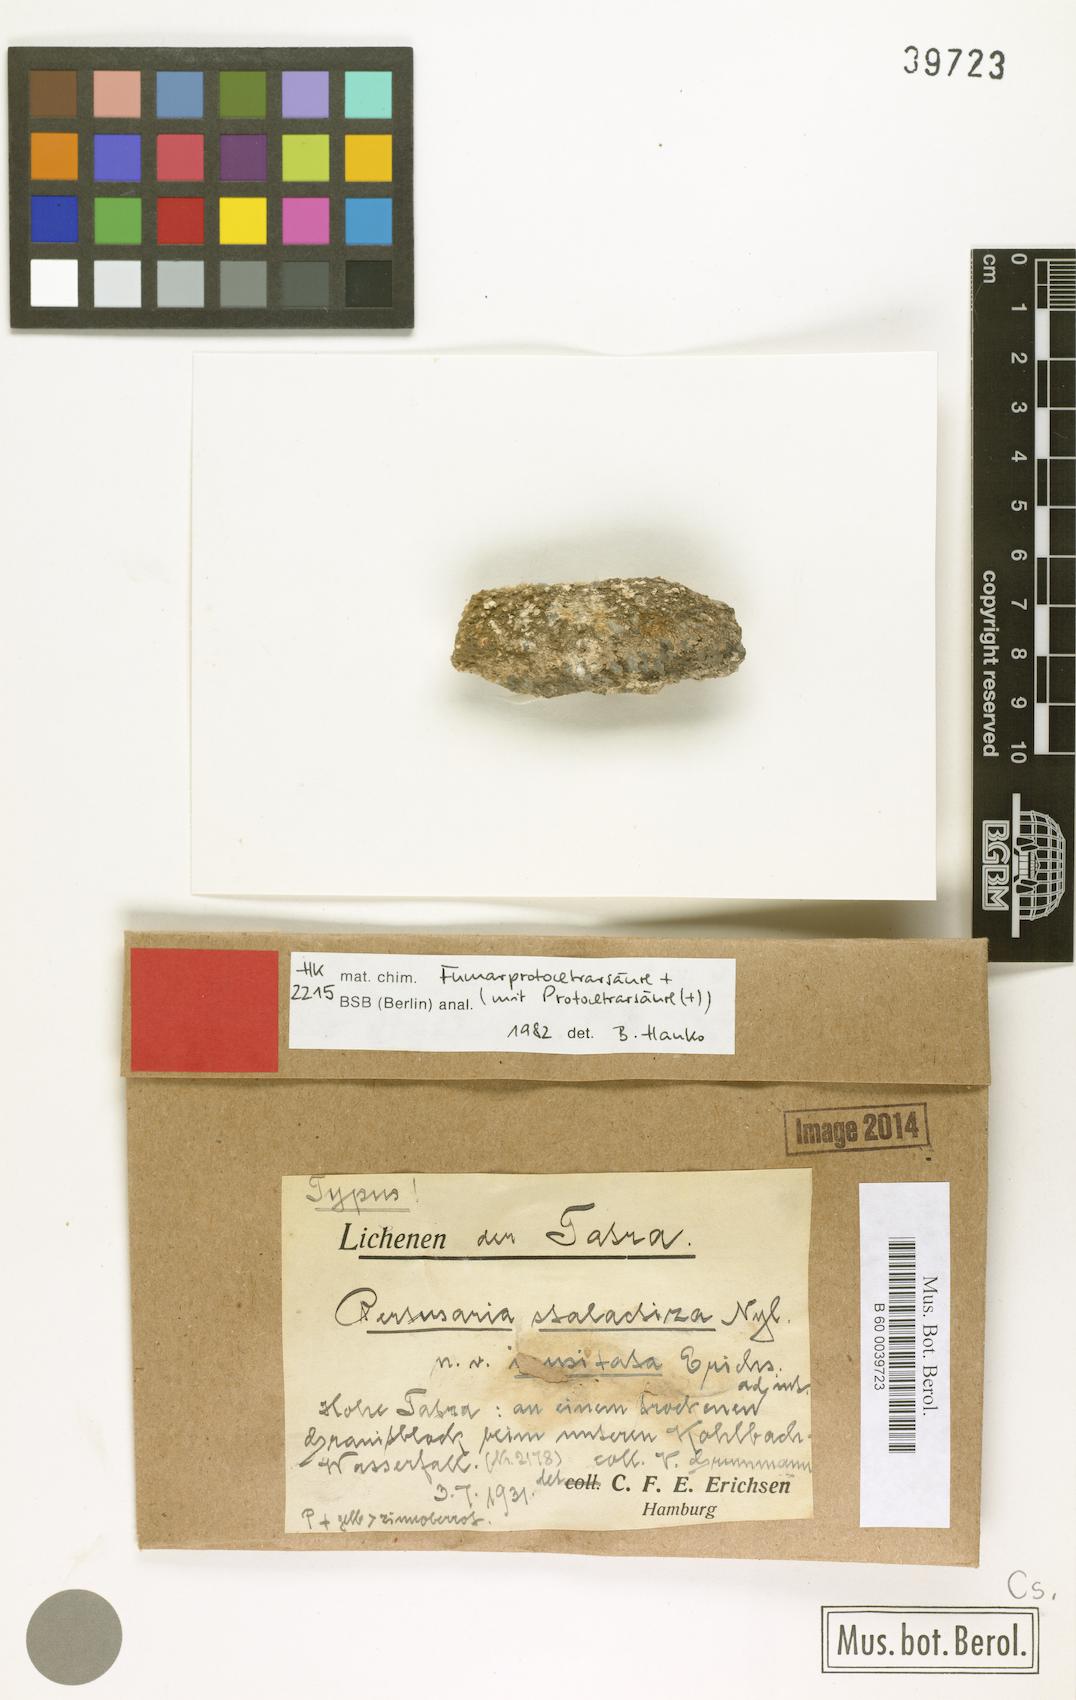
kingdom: Fungi
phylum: Ascomycota
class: Lecanoromycetes
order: Pertusariales
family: Pertusariaceae
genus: Lepra
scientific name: Lepra stalactiza
